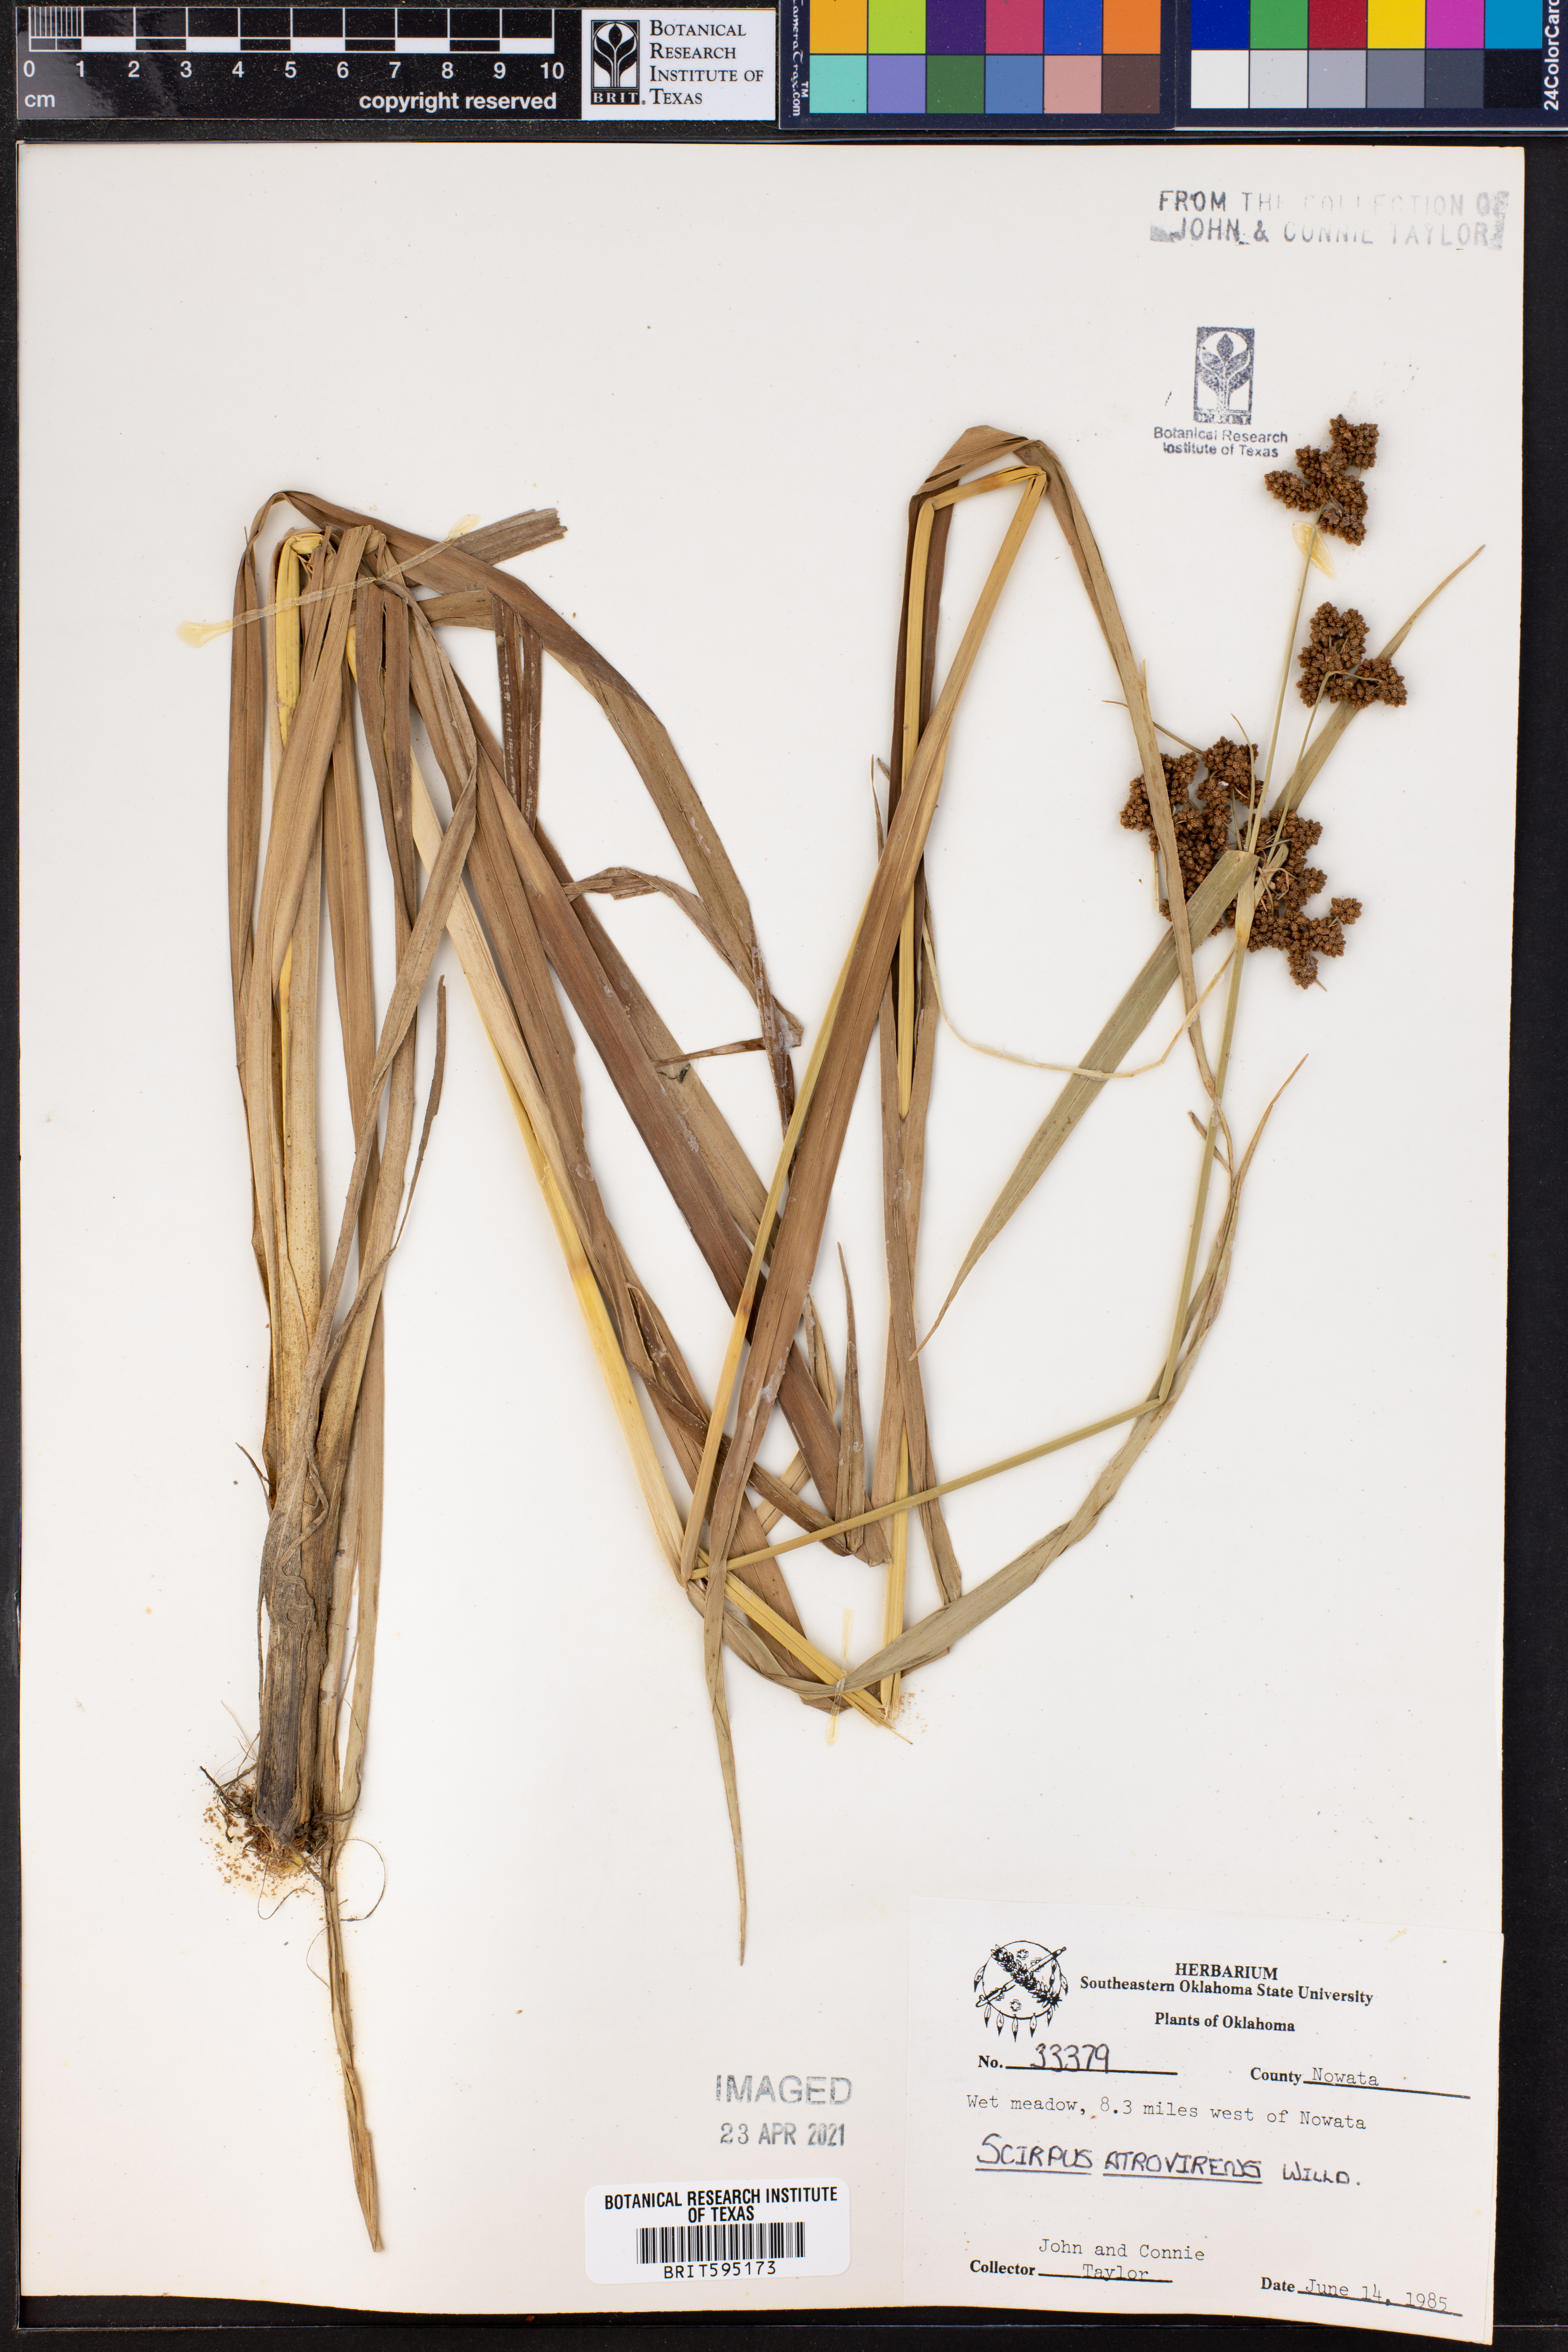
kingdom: Plantae
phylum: Tracheophyta
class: Liliopsida
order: Poales
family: Cyperaceae
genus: Scirpus
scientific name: Scirpus atrovirens
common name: Black bulrush
